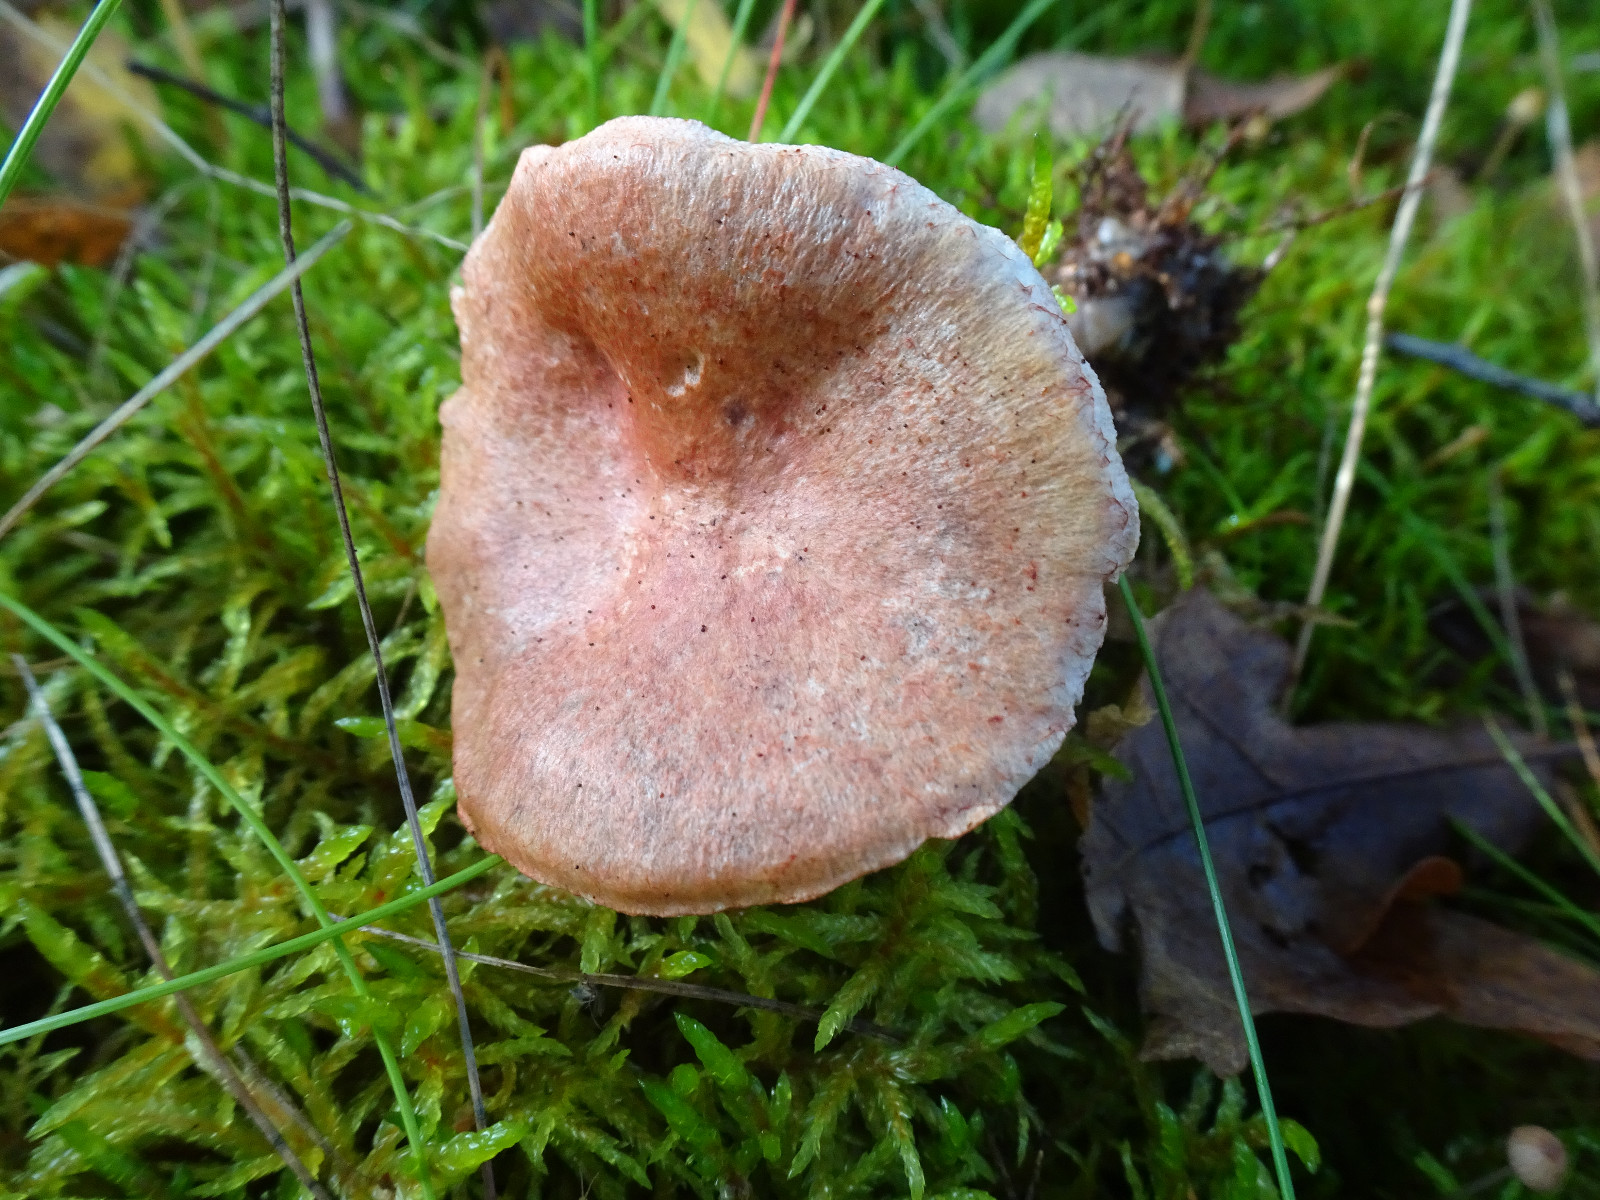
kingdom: Fungi
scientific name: Fungi
